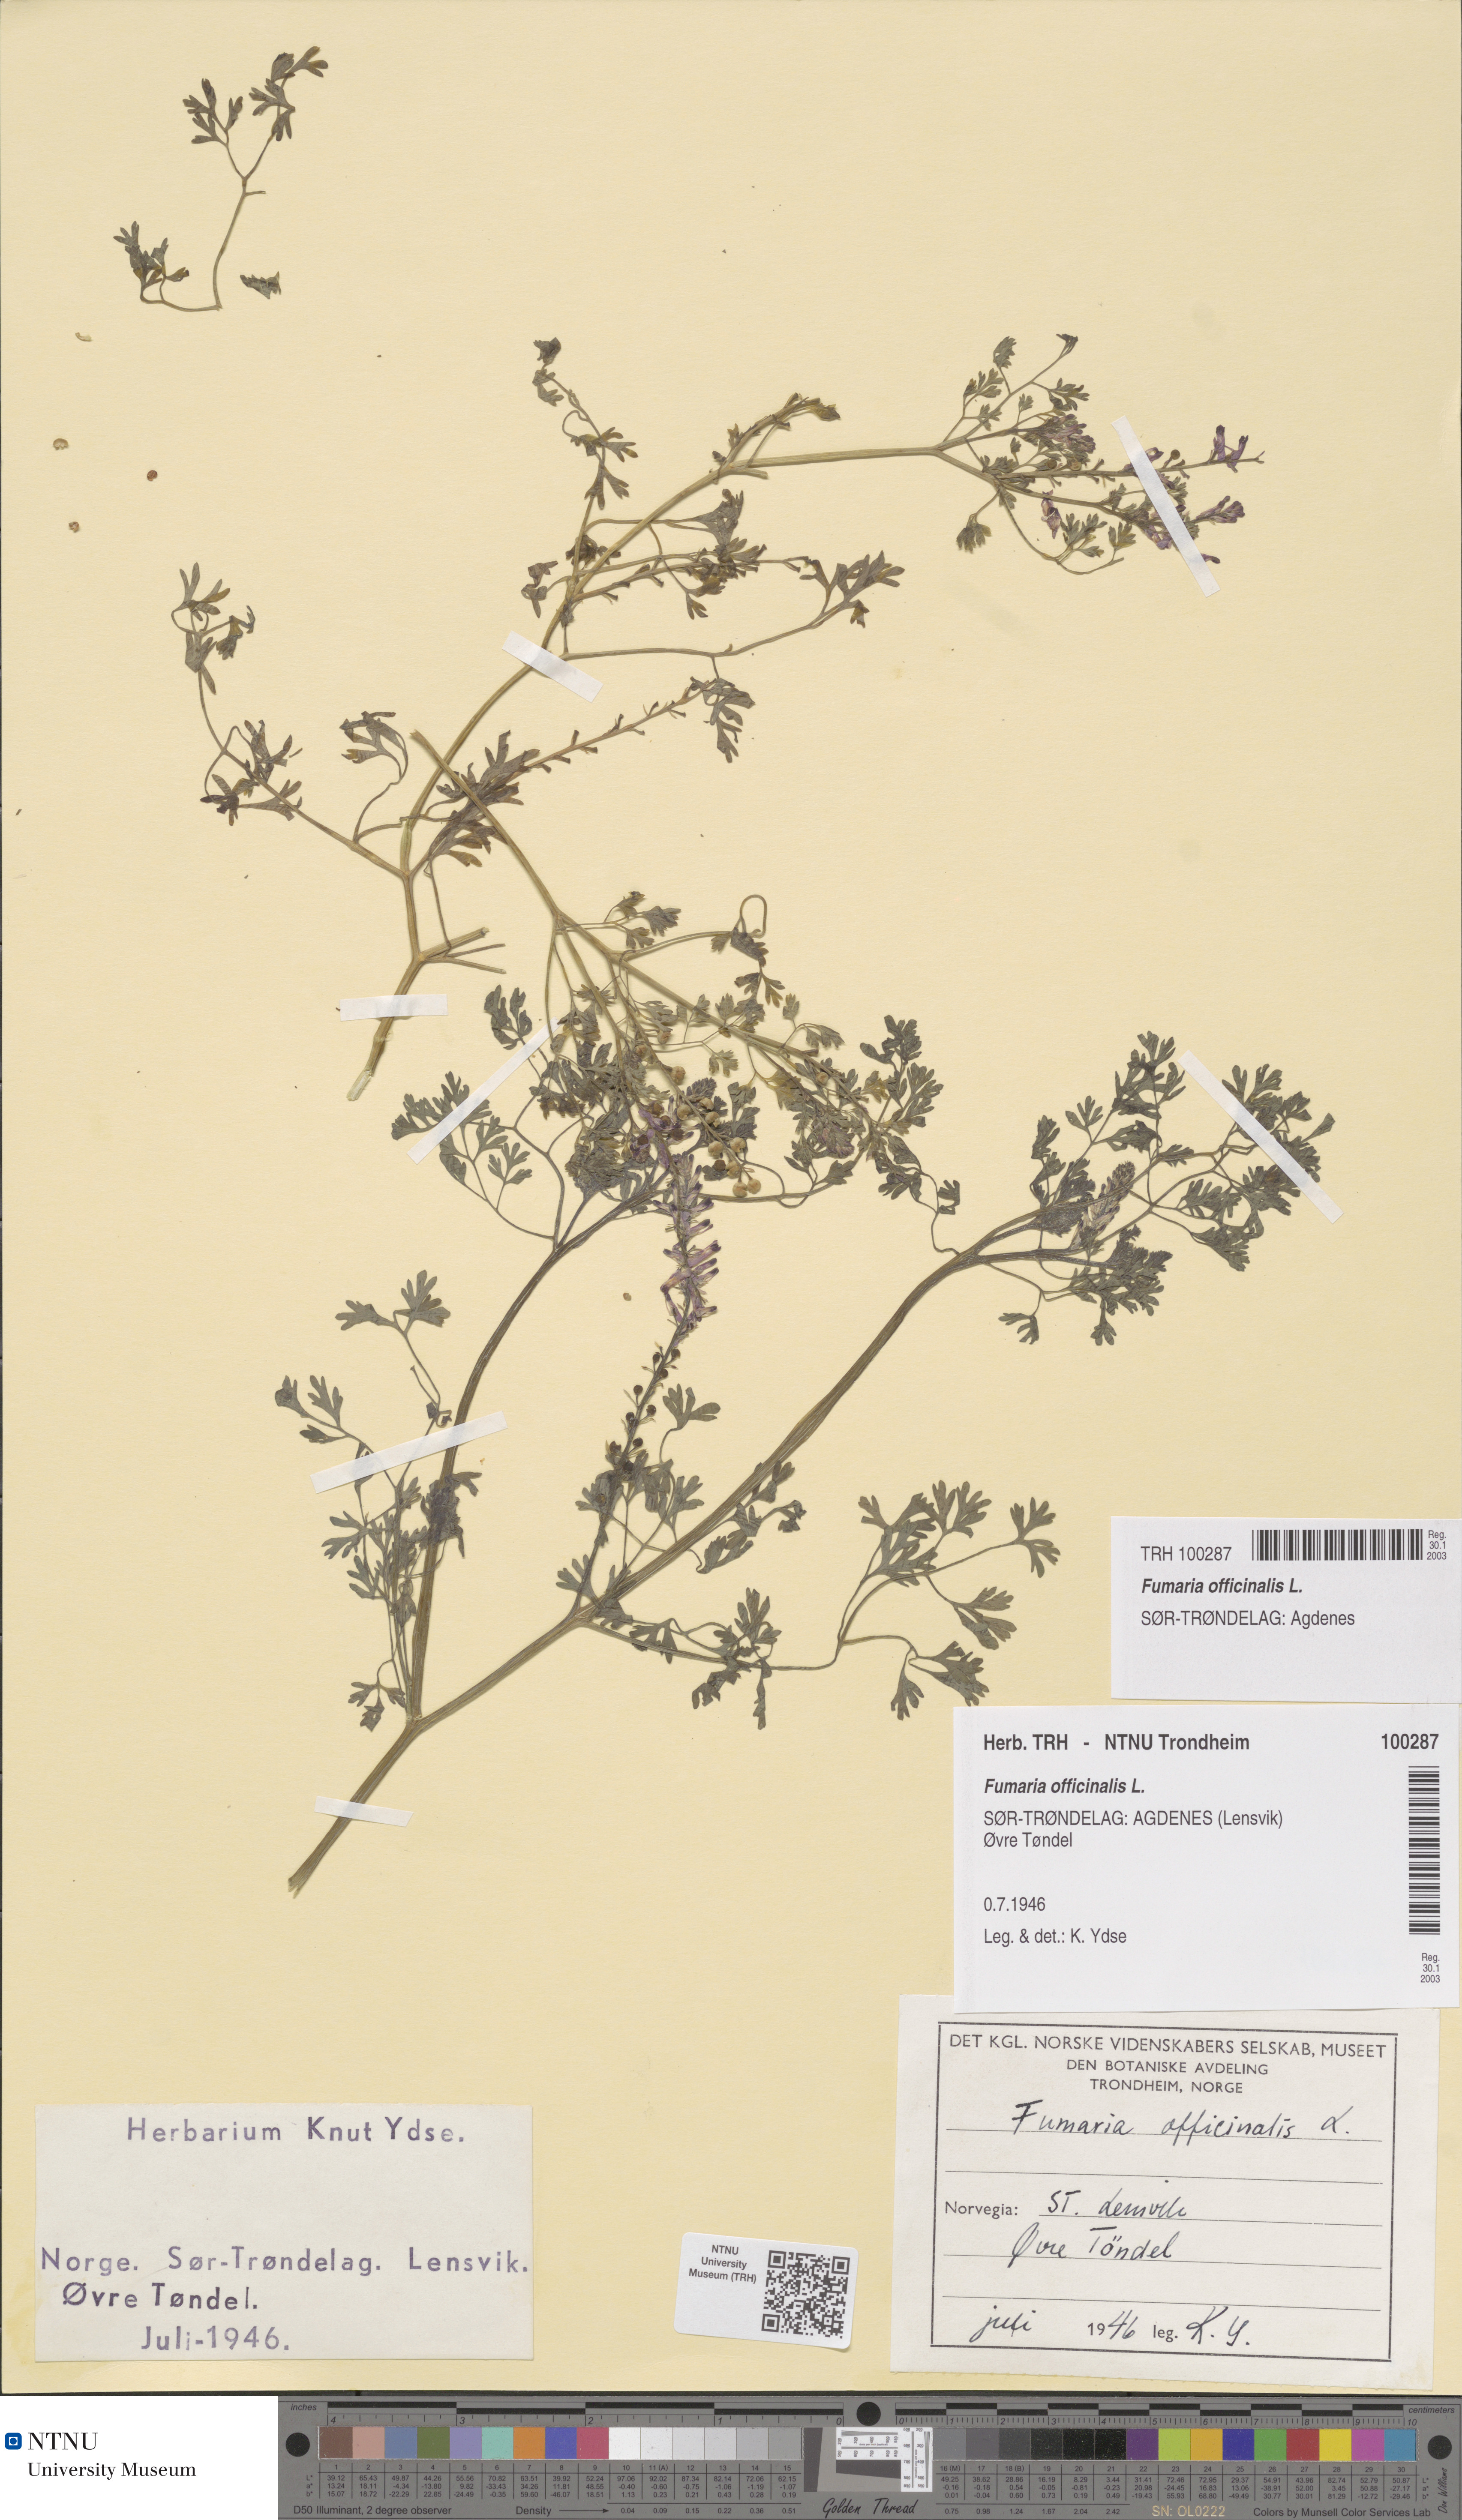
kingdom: Plantae
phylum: Tracheophyta
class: Magnoliopsida
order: Ranunculales
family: Papaveraceae
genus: Fumaria
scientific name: Fumaria officinalis
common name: Common fumitory
